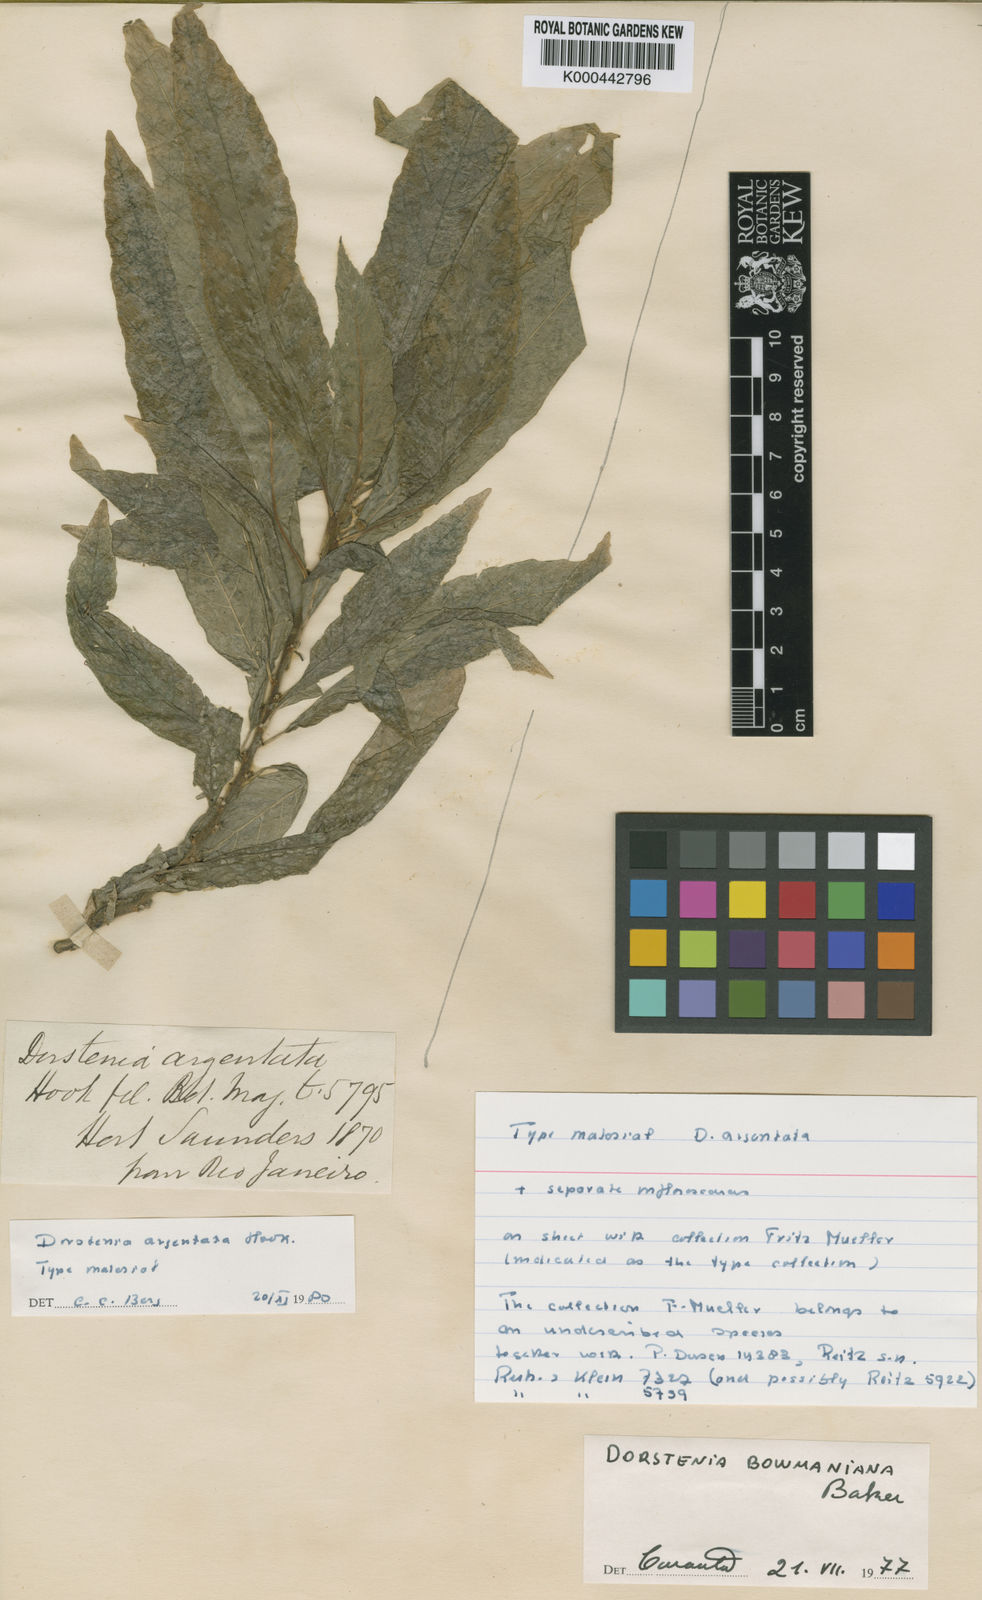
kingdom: Plantae
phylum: Tracheophyta
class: Magnoliopsida
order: Rosales
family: Moraceae
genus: Dorstenia
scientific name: Dorstenia turnerifolia
